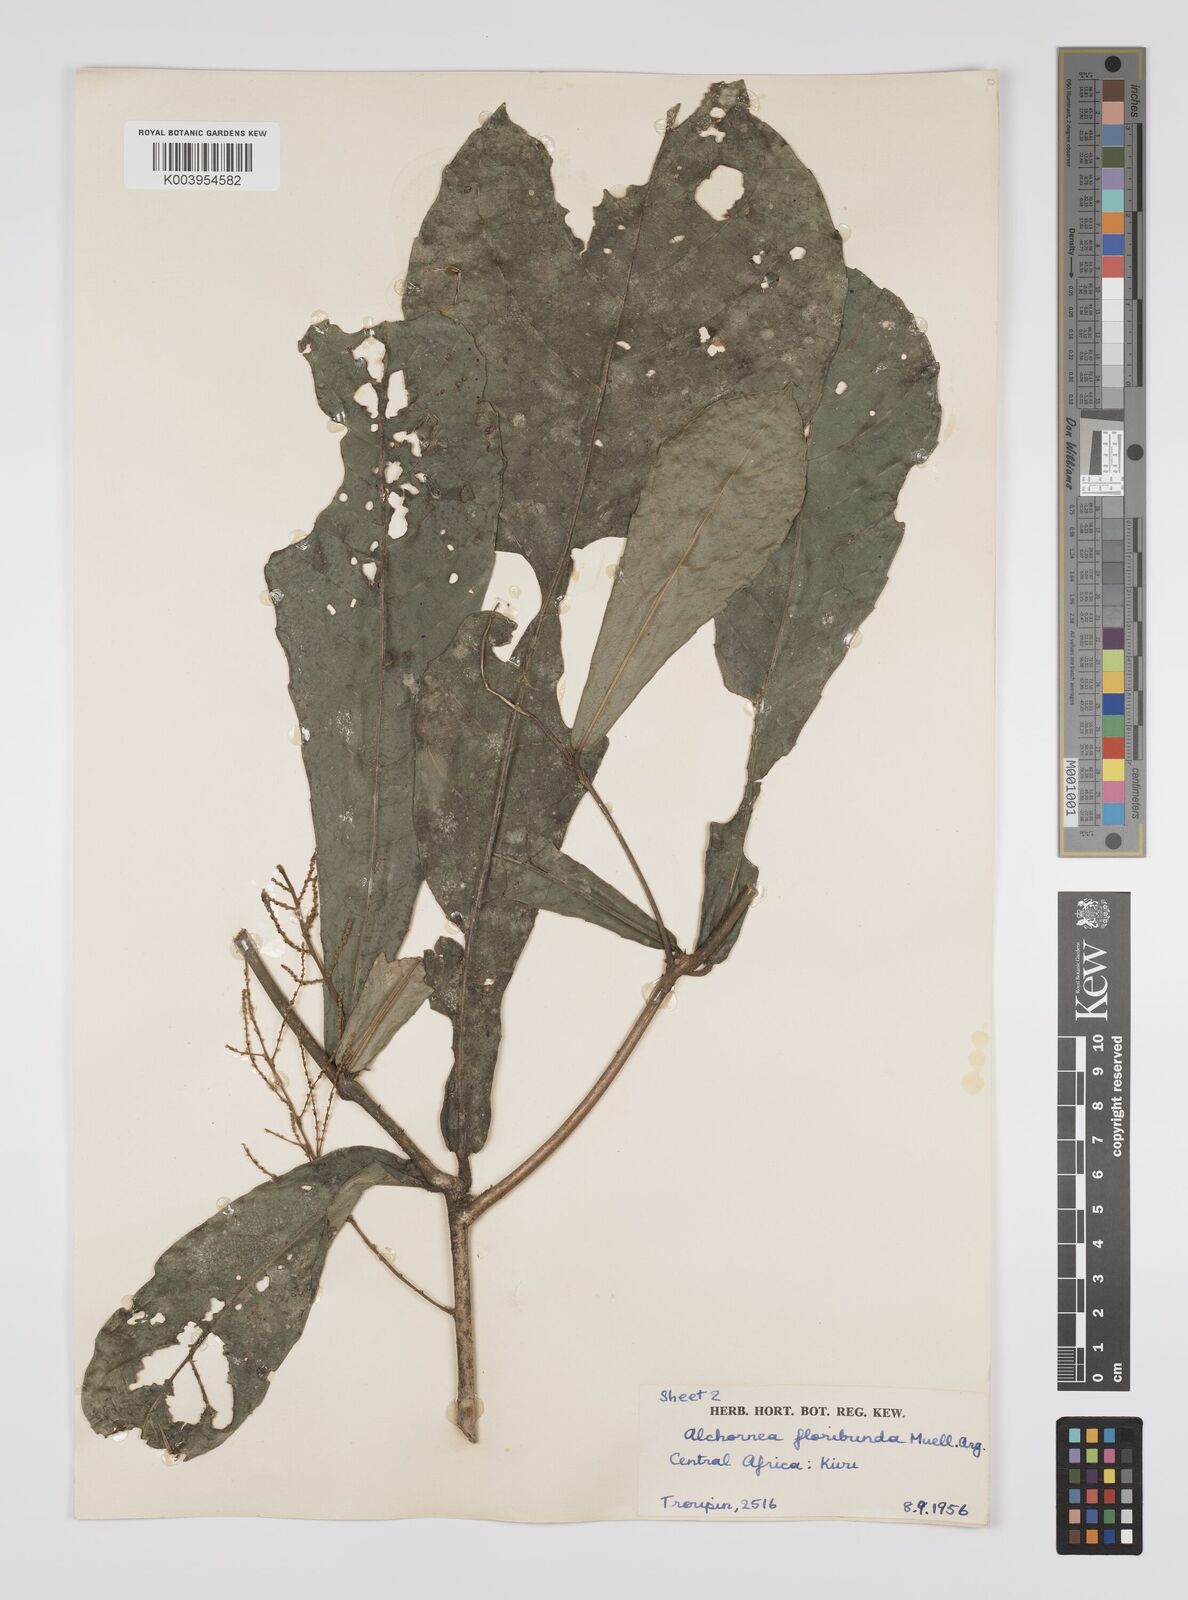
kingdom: Plantae
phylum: Tracheophyta
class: Magnoliopsida
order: Malpighiales
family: Euphorbiaceae
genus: Alchornea
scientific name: Alchornea floribunda
